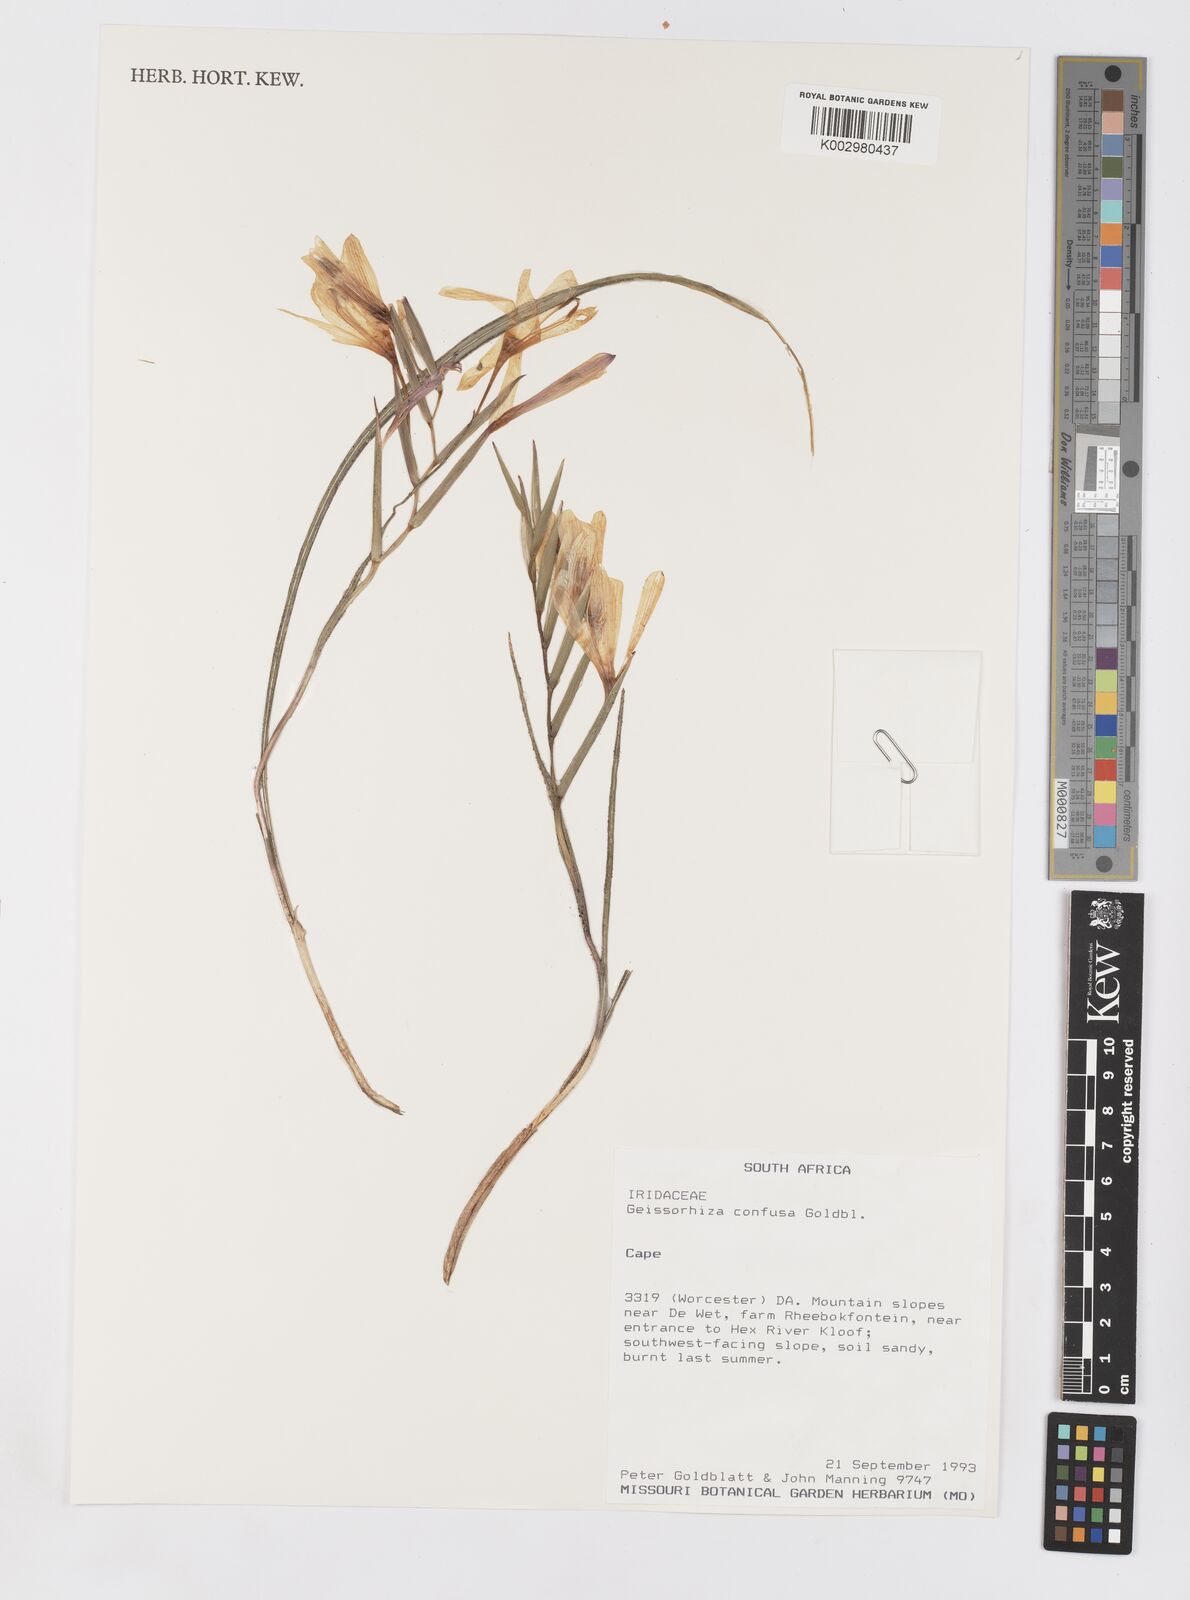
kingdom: Plantae
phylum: Tracheophyta
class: Liliopsida
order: Asparagales
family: Iridaceae
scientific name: Iridaceae
